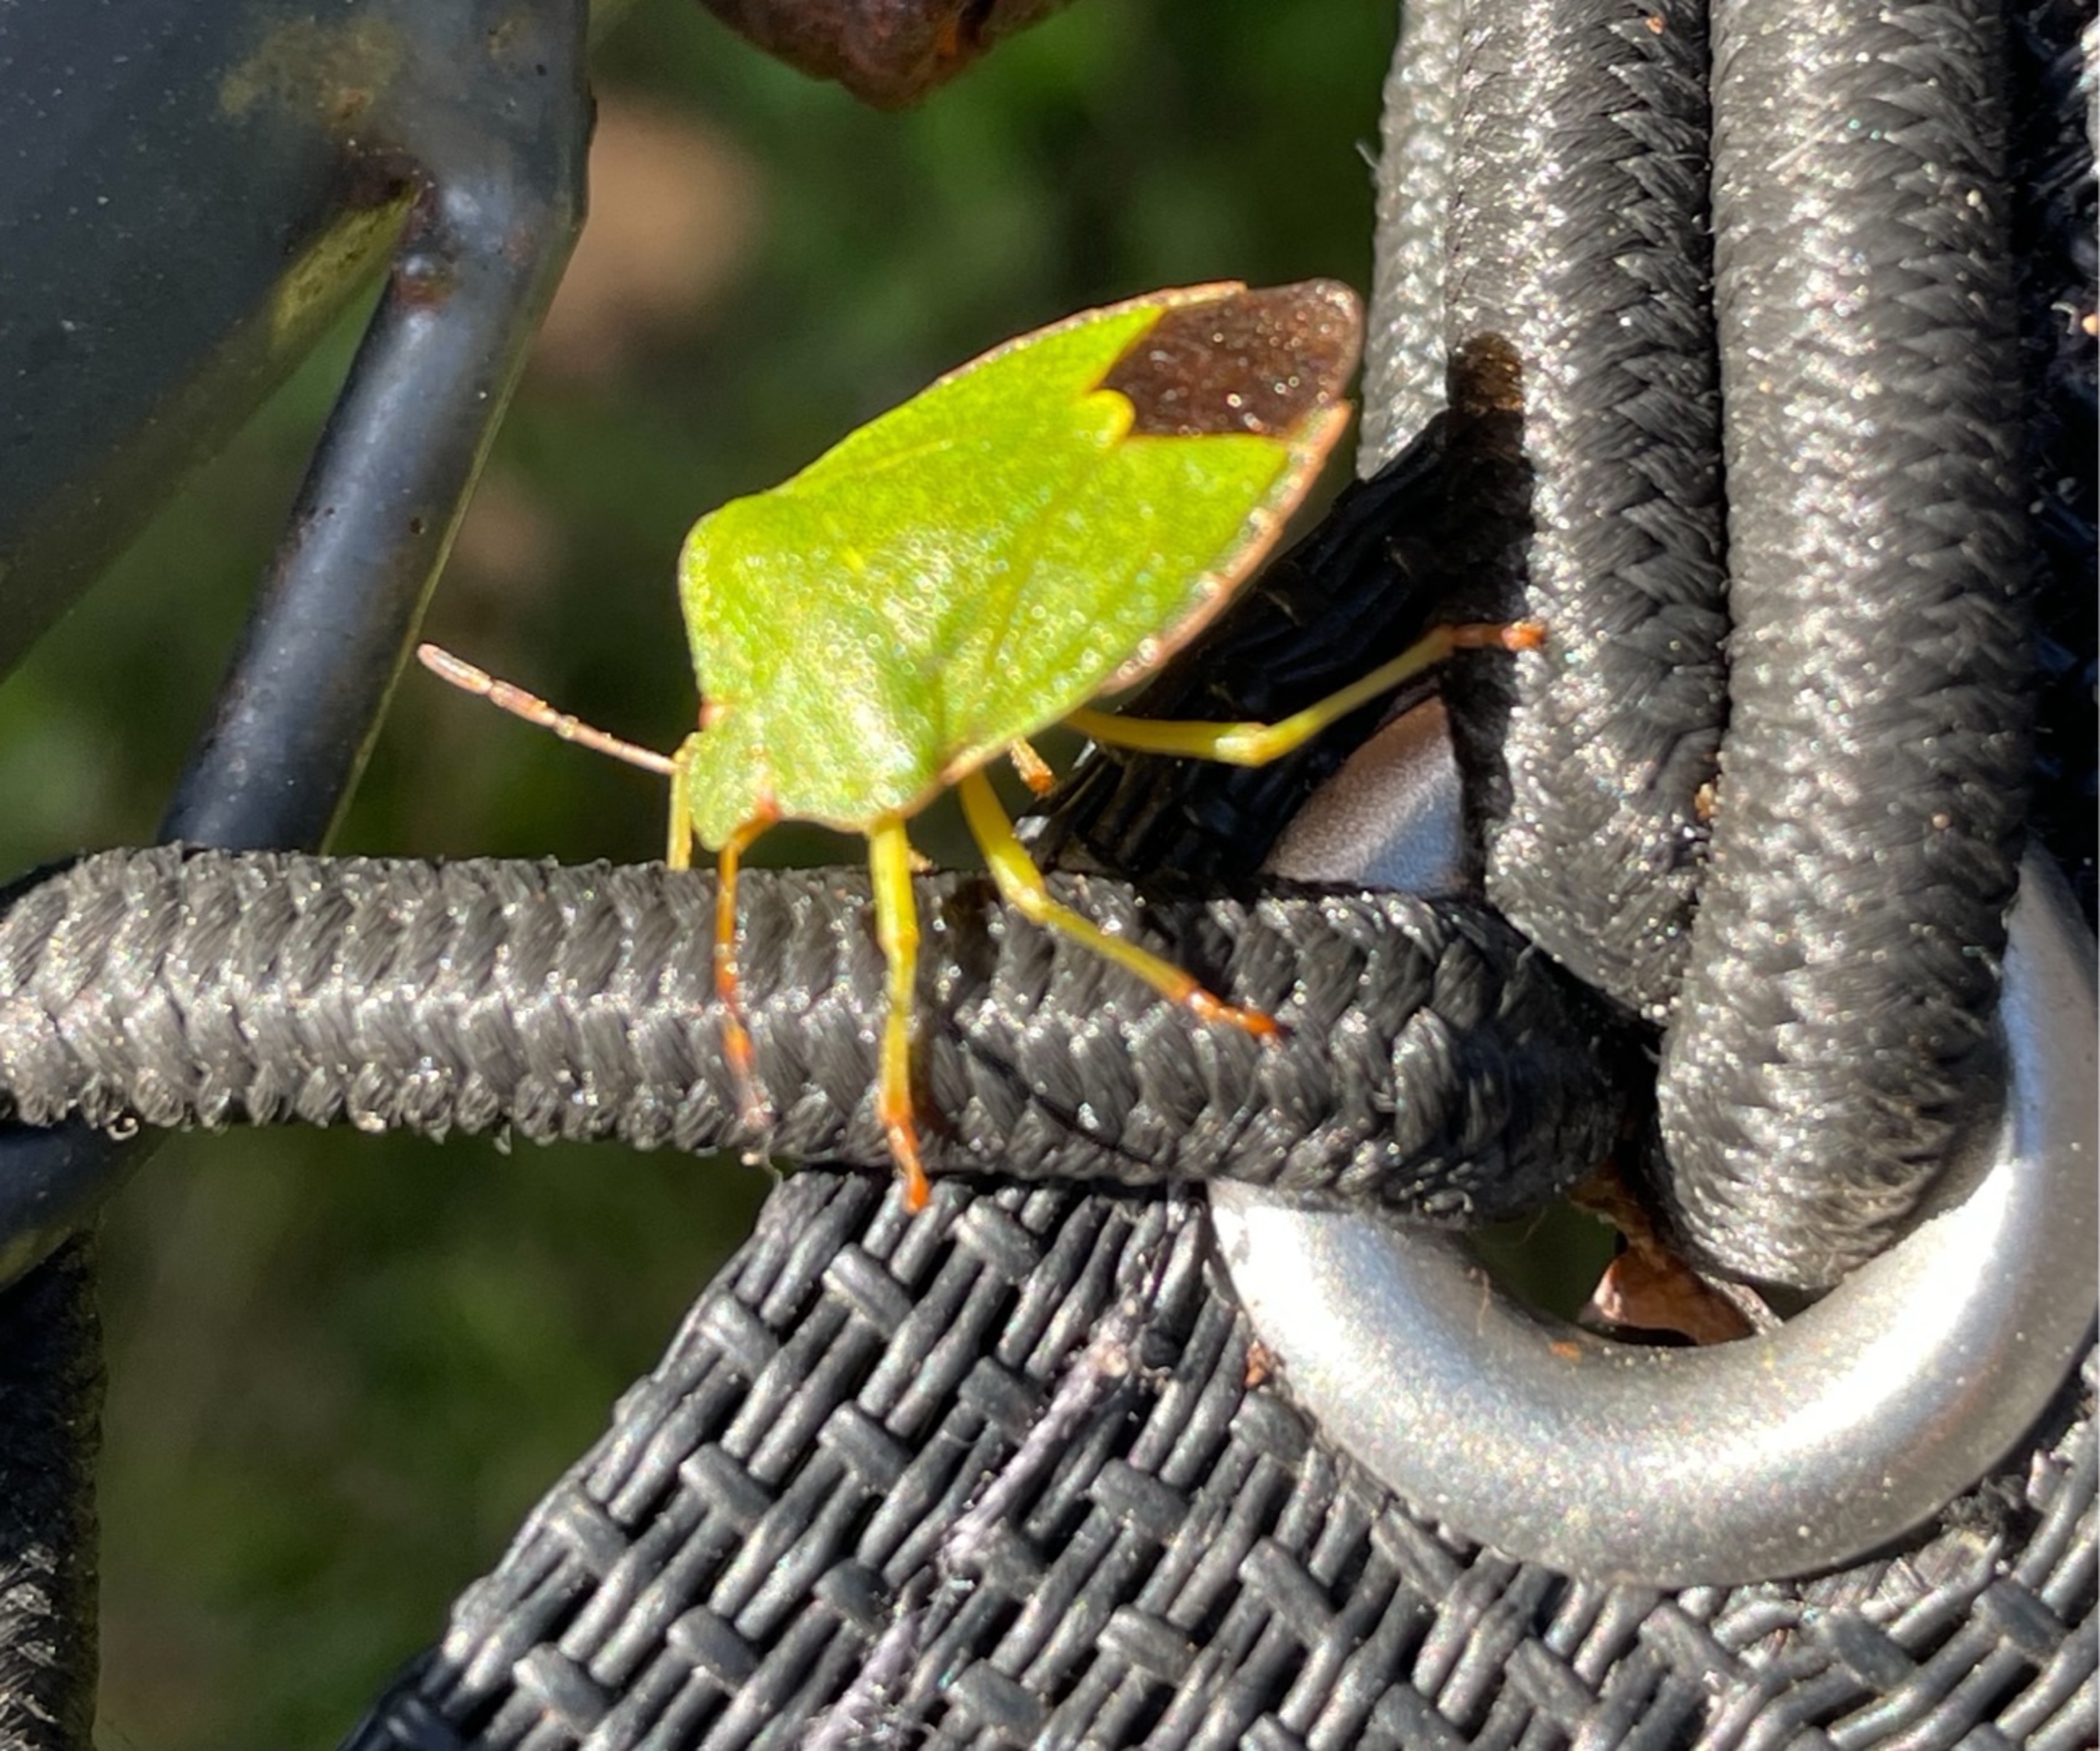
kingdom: Animalia
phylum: Arthropoda
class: Insecta
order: Hemiptera
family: Pentatomidae
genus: Palomena
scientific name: Palomena prasina
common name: Grøn bredtæge
